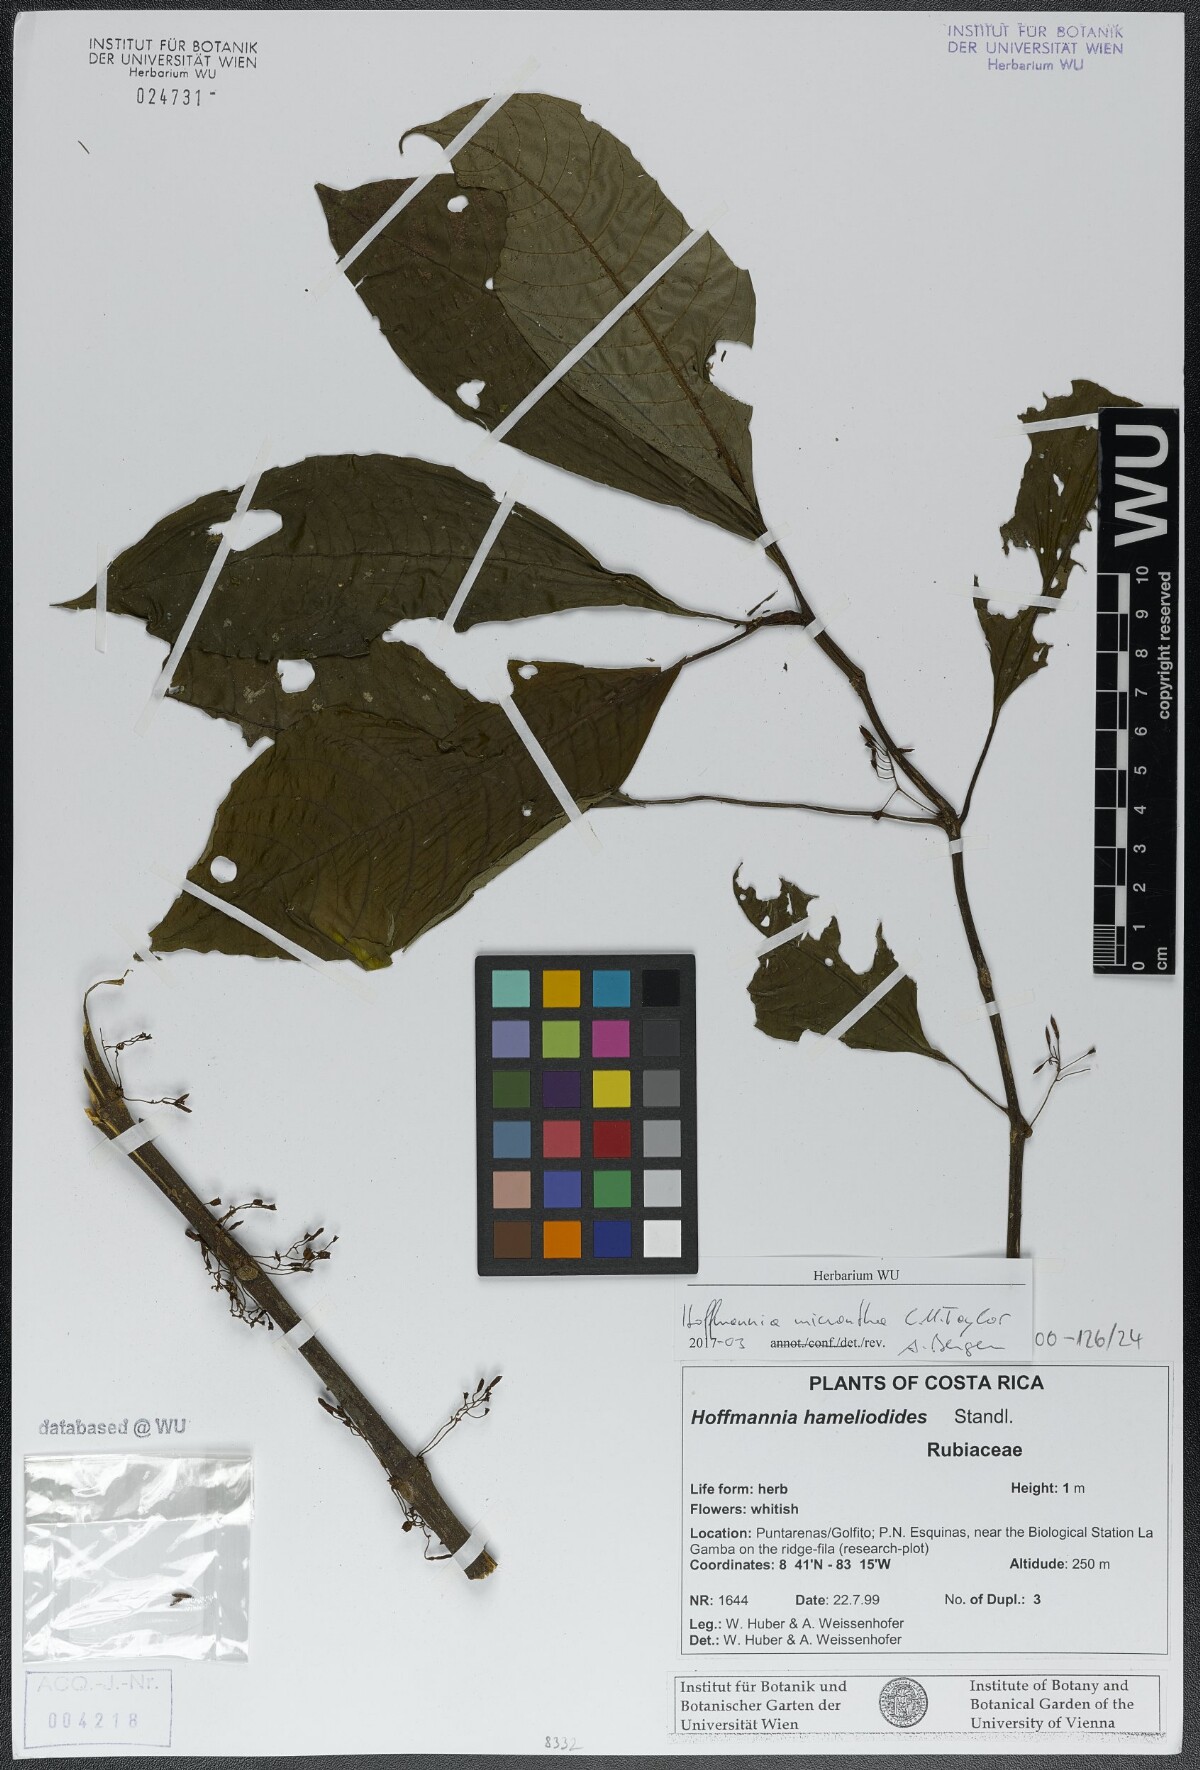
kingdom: Plantae
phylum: Tracheophyta
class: Magnoliopsida
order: Gentianales
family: Rubiaceae
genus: Hoffmannia
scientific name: Hoffmannia micrantha
